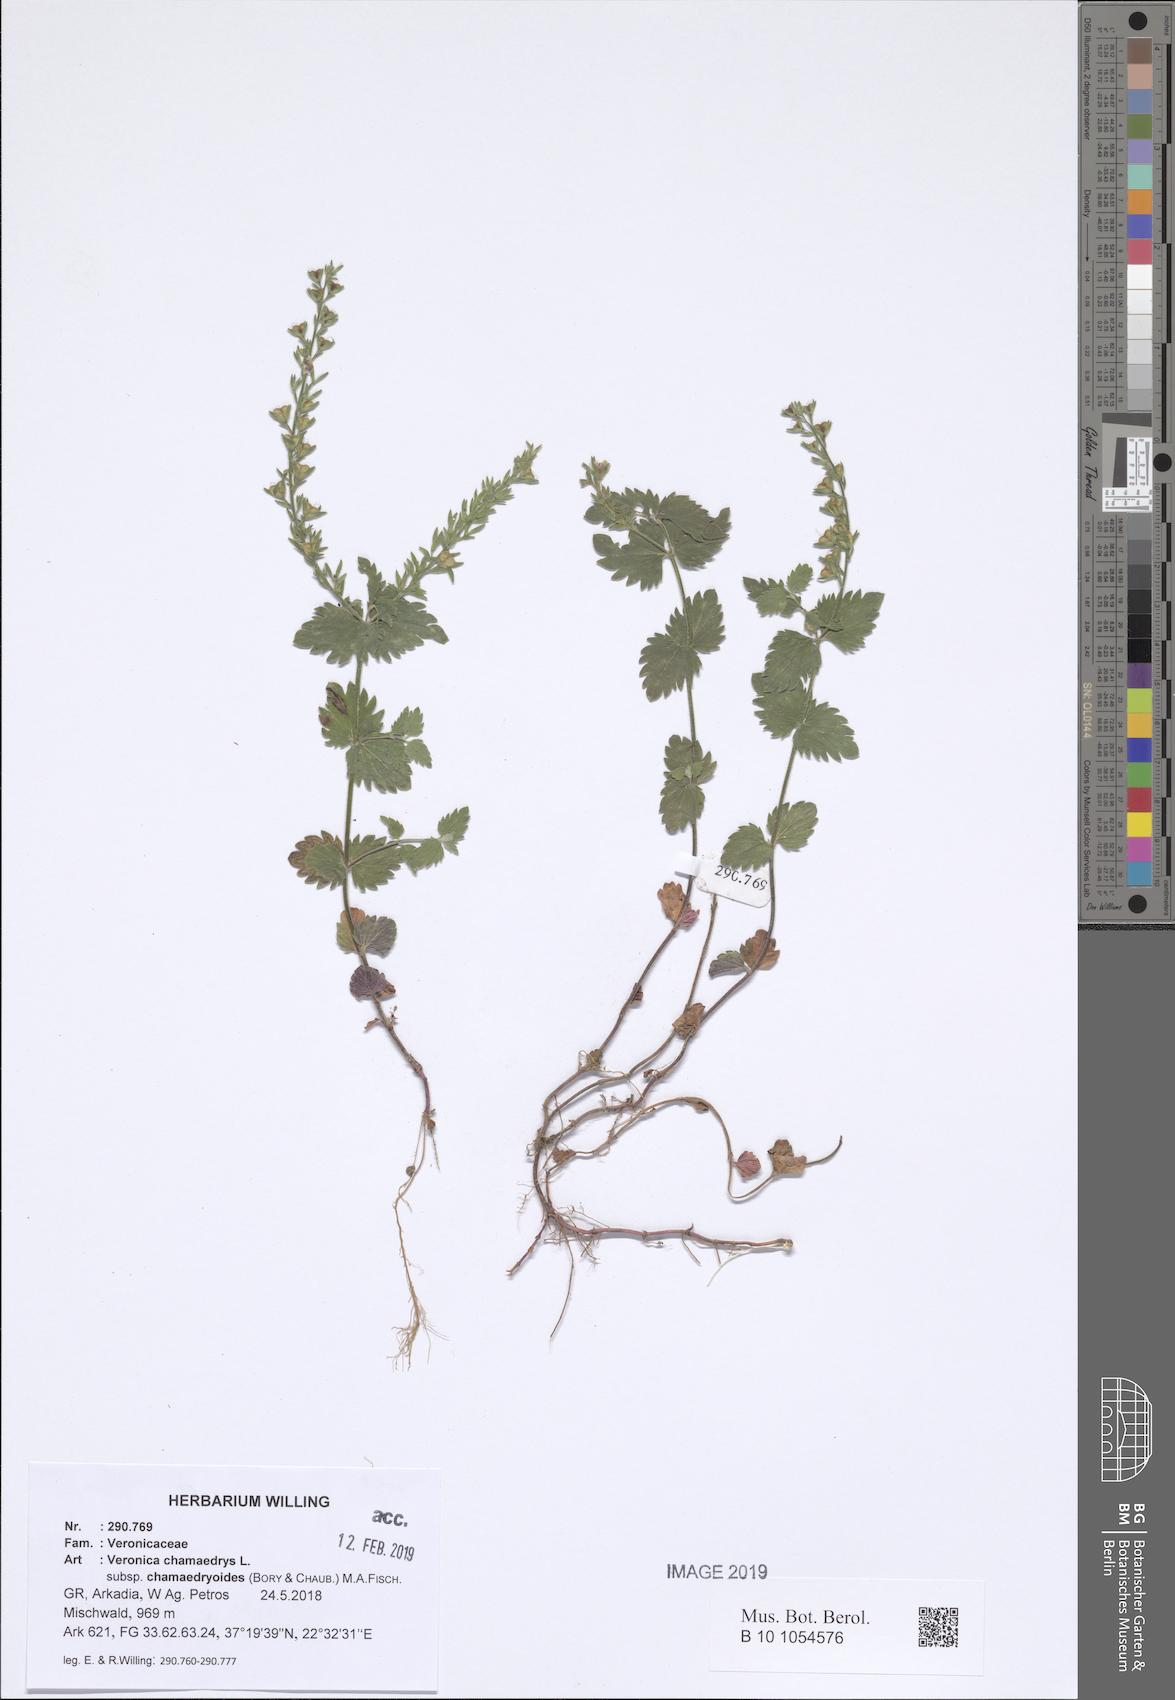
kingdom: Plantae
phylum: Tracheophyta
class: Magnoliopsida
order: Lamiales
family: Plantaginaceae
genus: Veronica
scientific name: Veronica chamaedrys
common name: Germander speedwell
